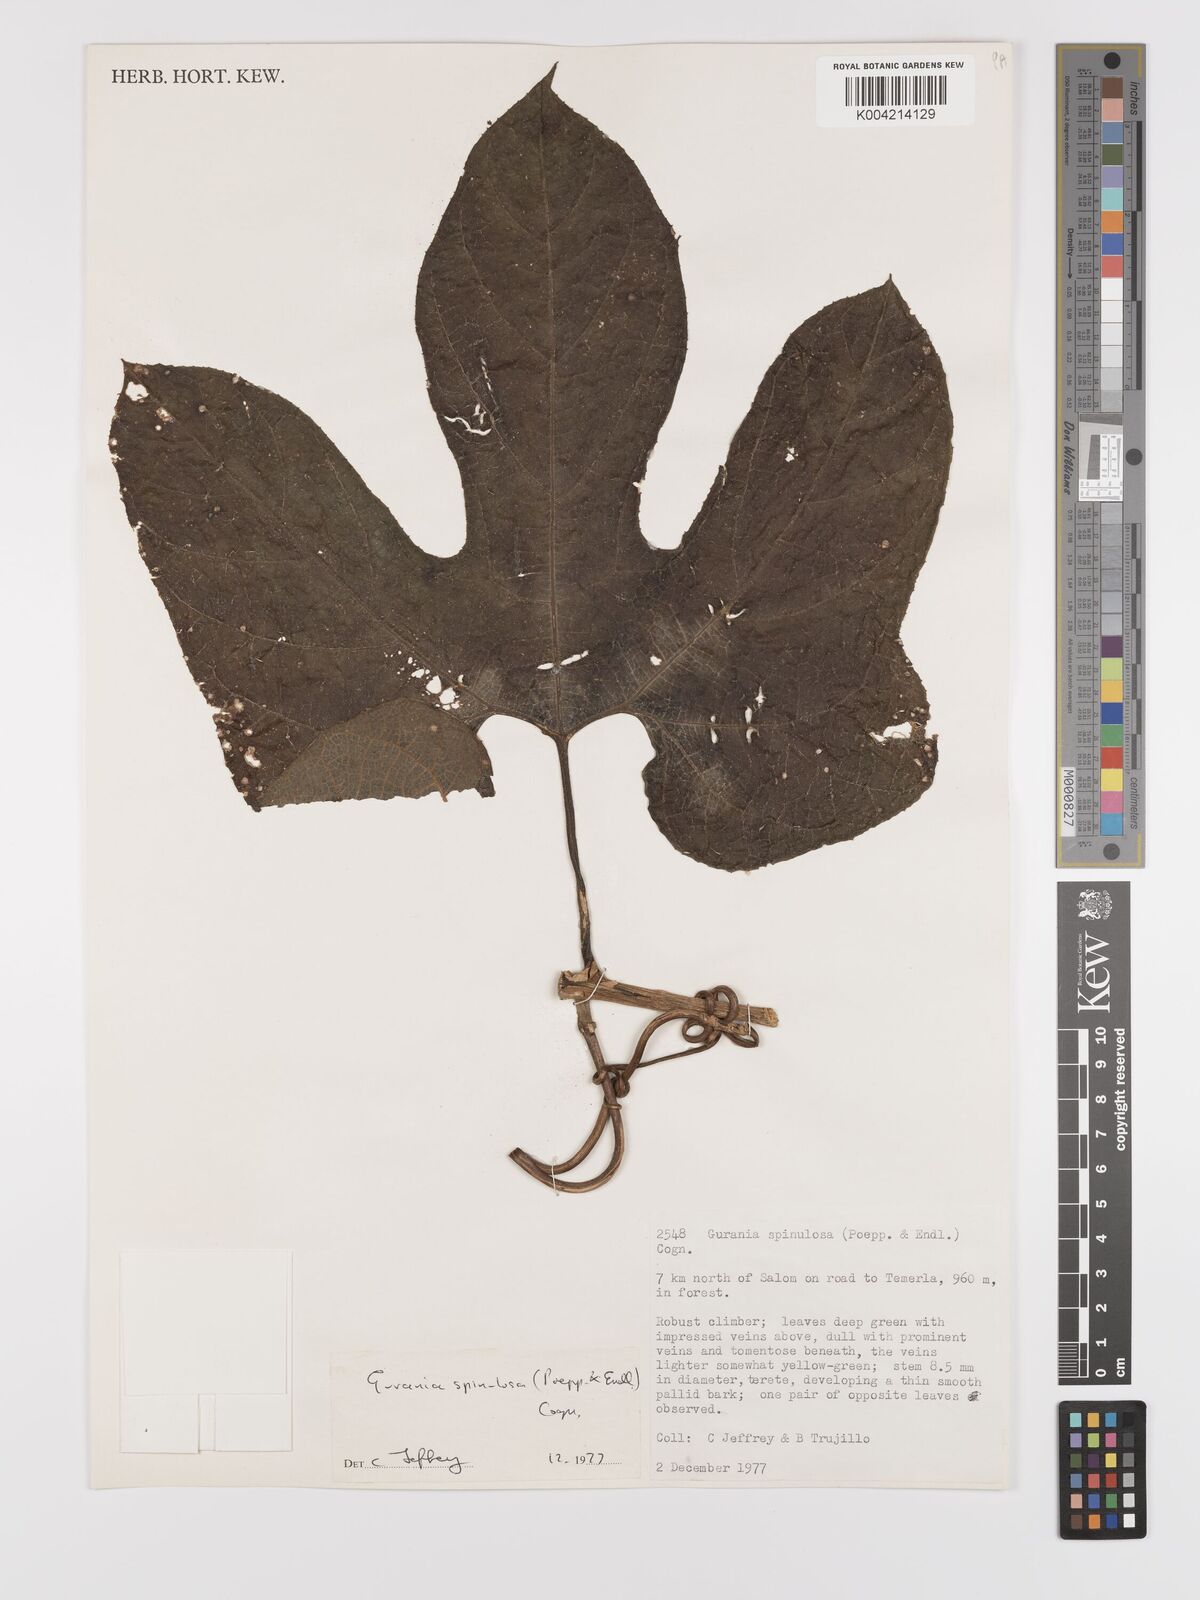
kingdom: Plantae
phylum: Tracheophyta
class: Magnoliopsida
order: Cucurbitales
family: Cucurbitaceae
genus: Gurania
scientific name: Gurania lobata
